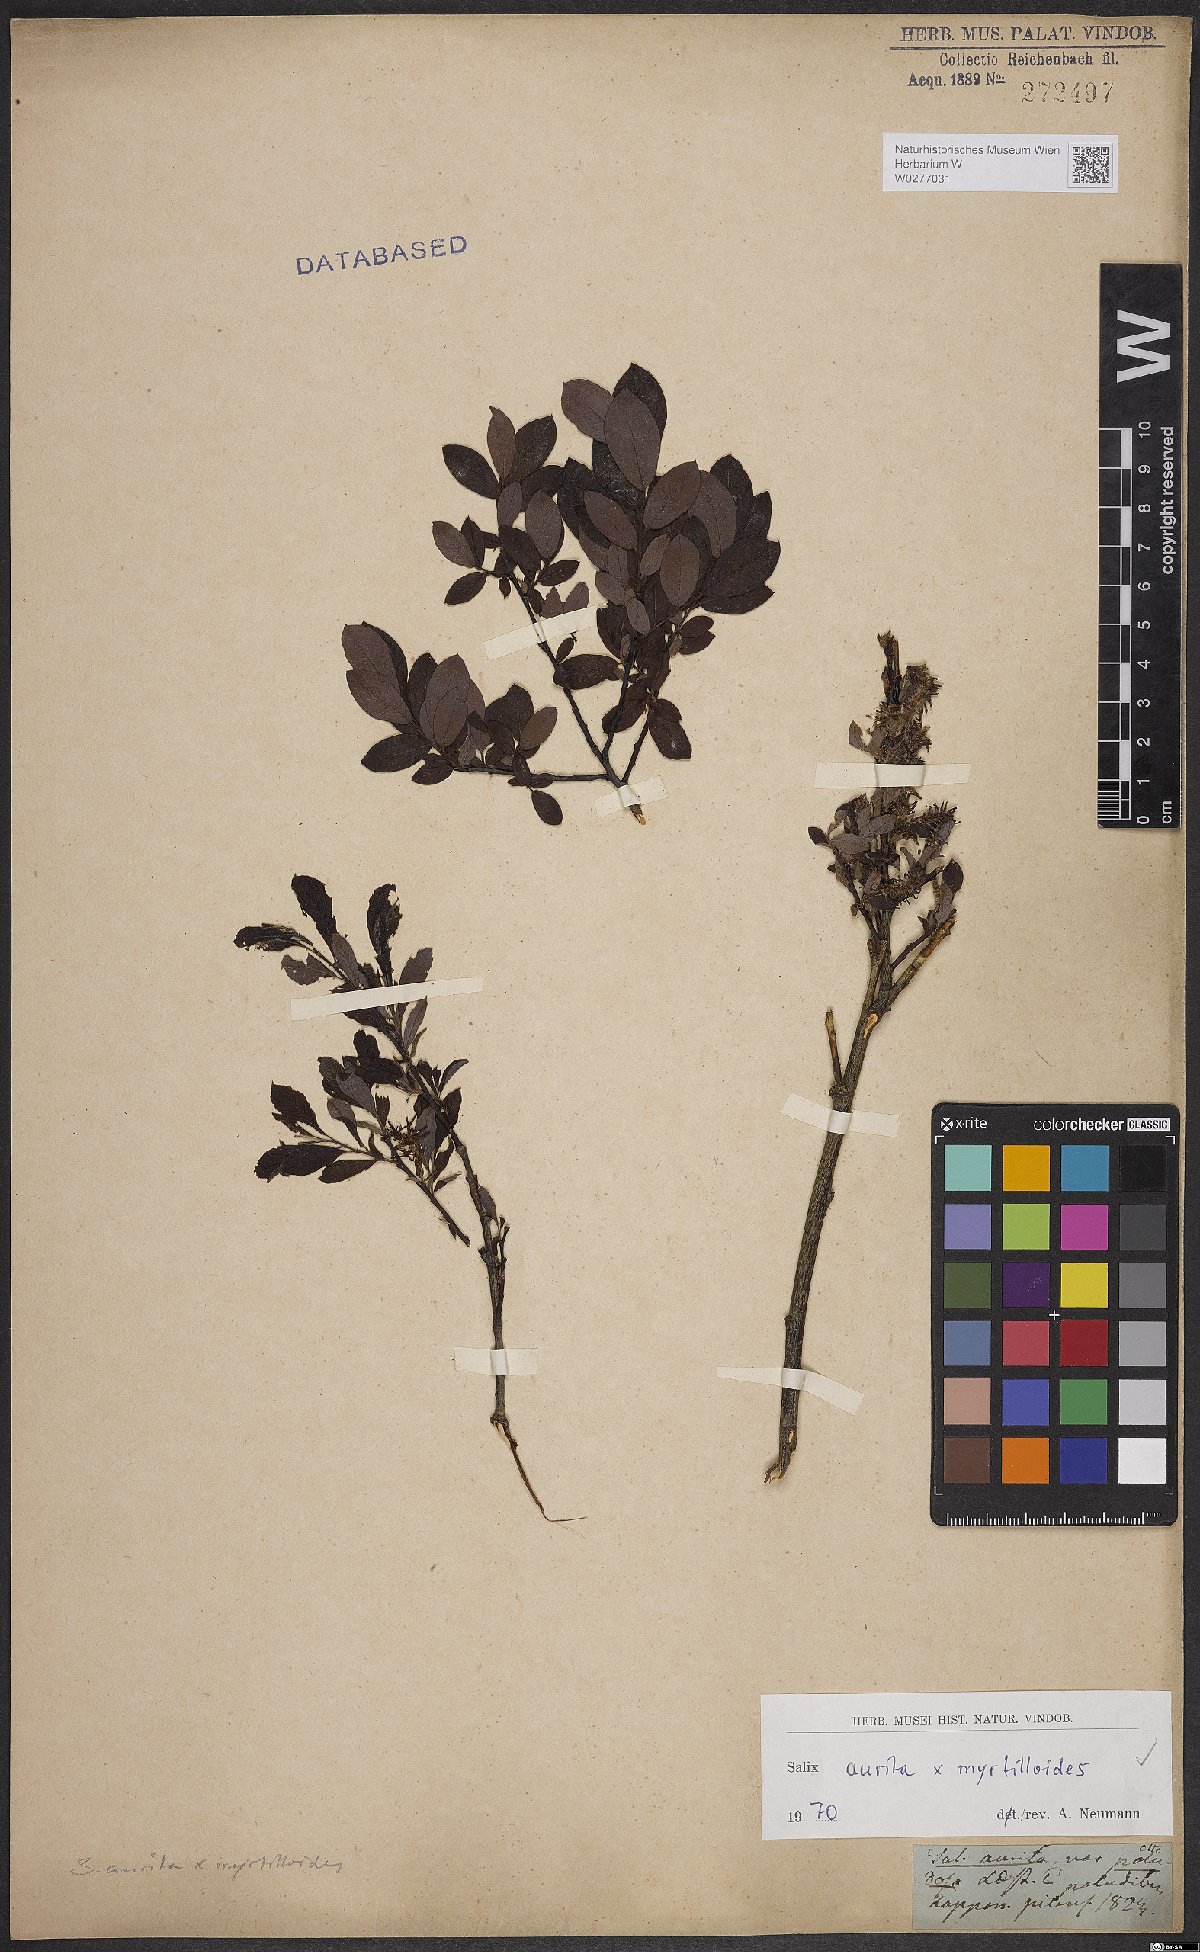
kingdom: Plantae
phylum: Tracheophyta
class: Magnoliopsida
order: Malpighiales
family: Salicaceae
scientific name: Salicaceae
